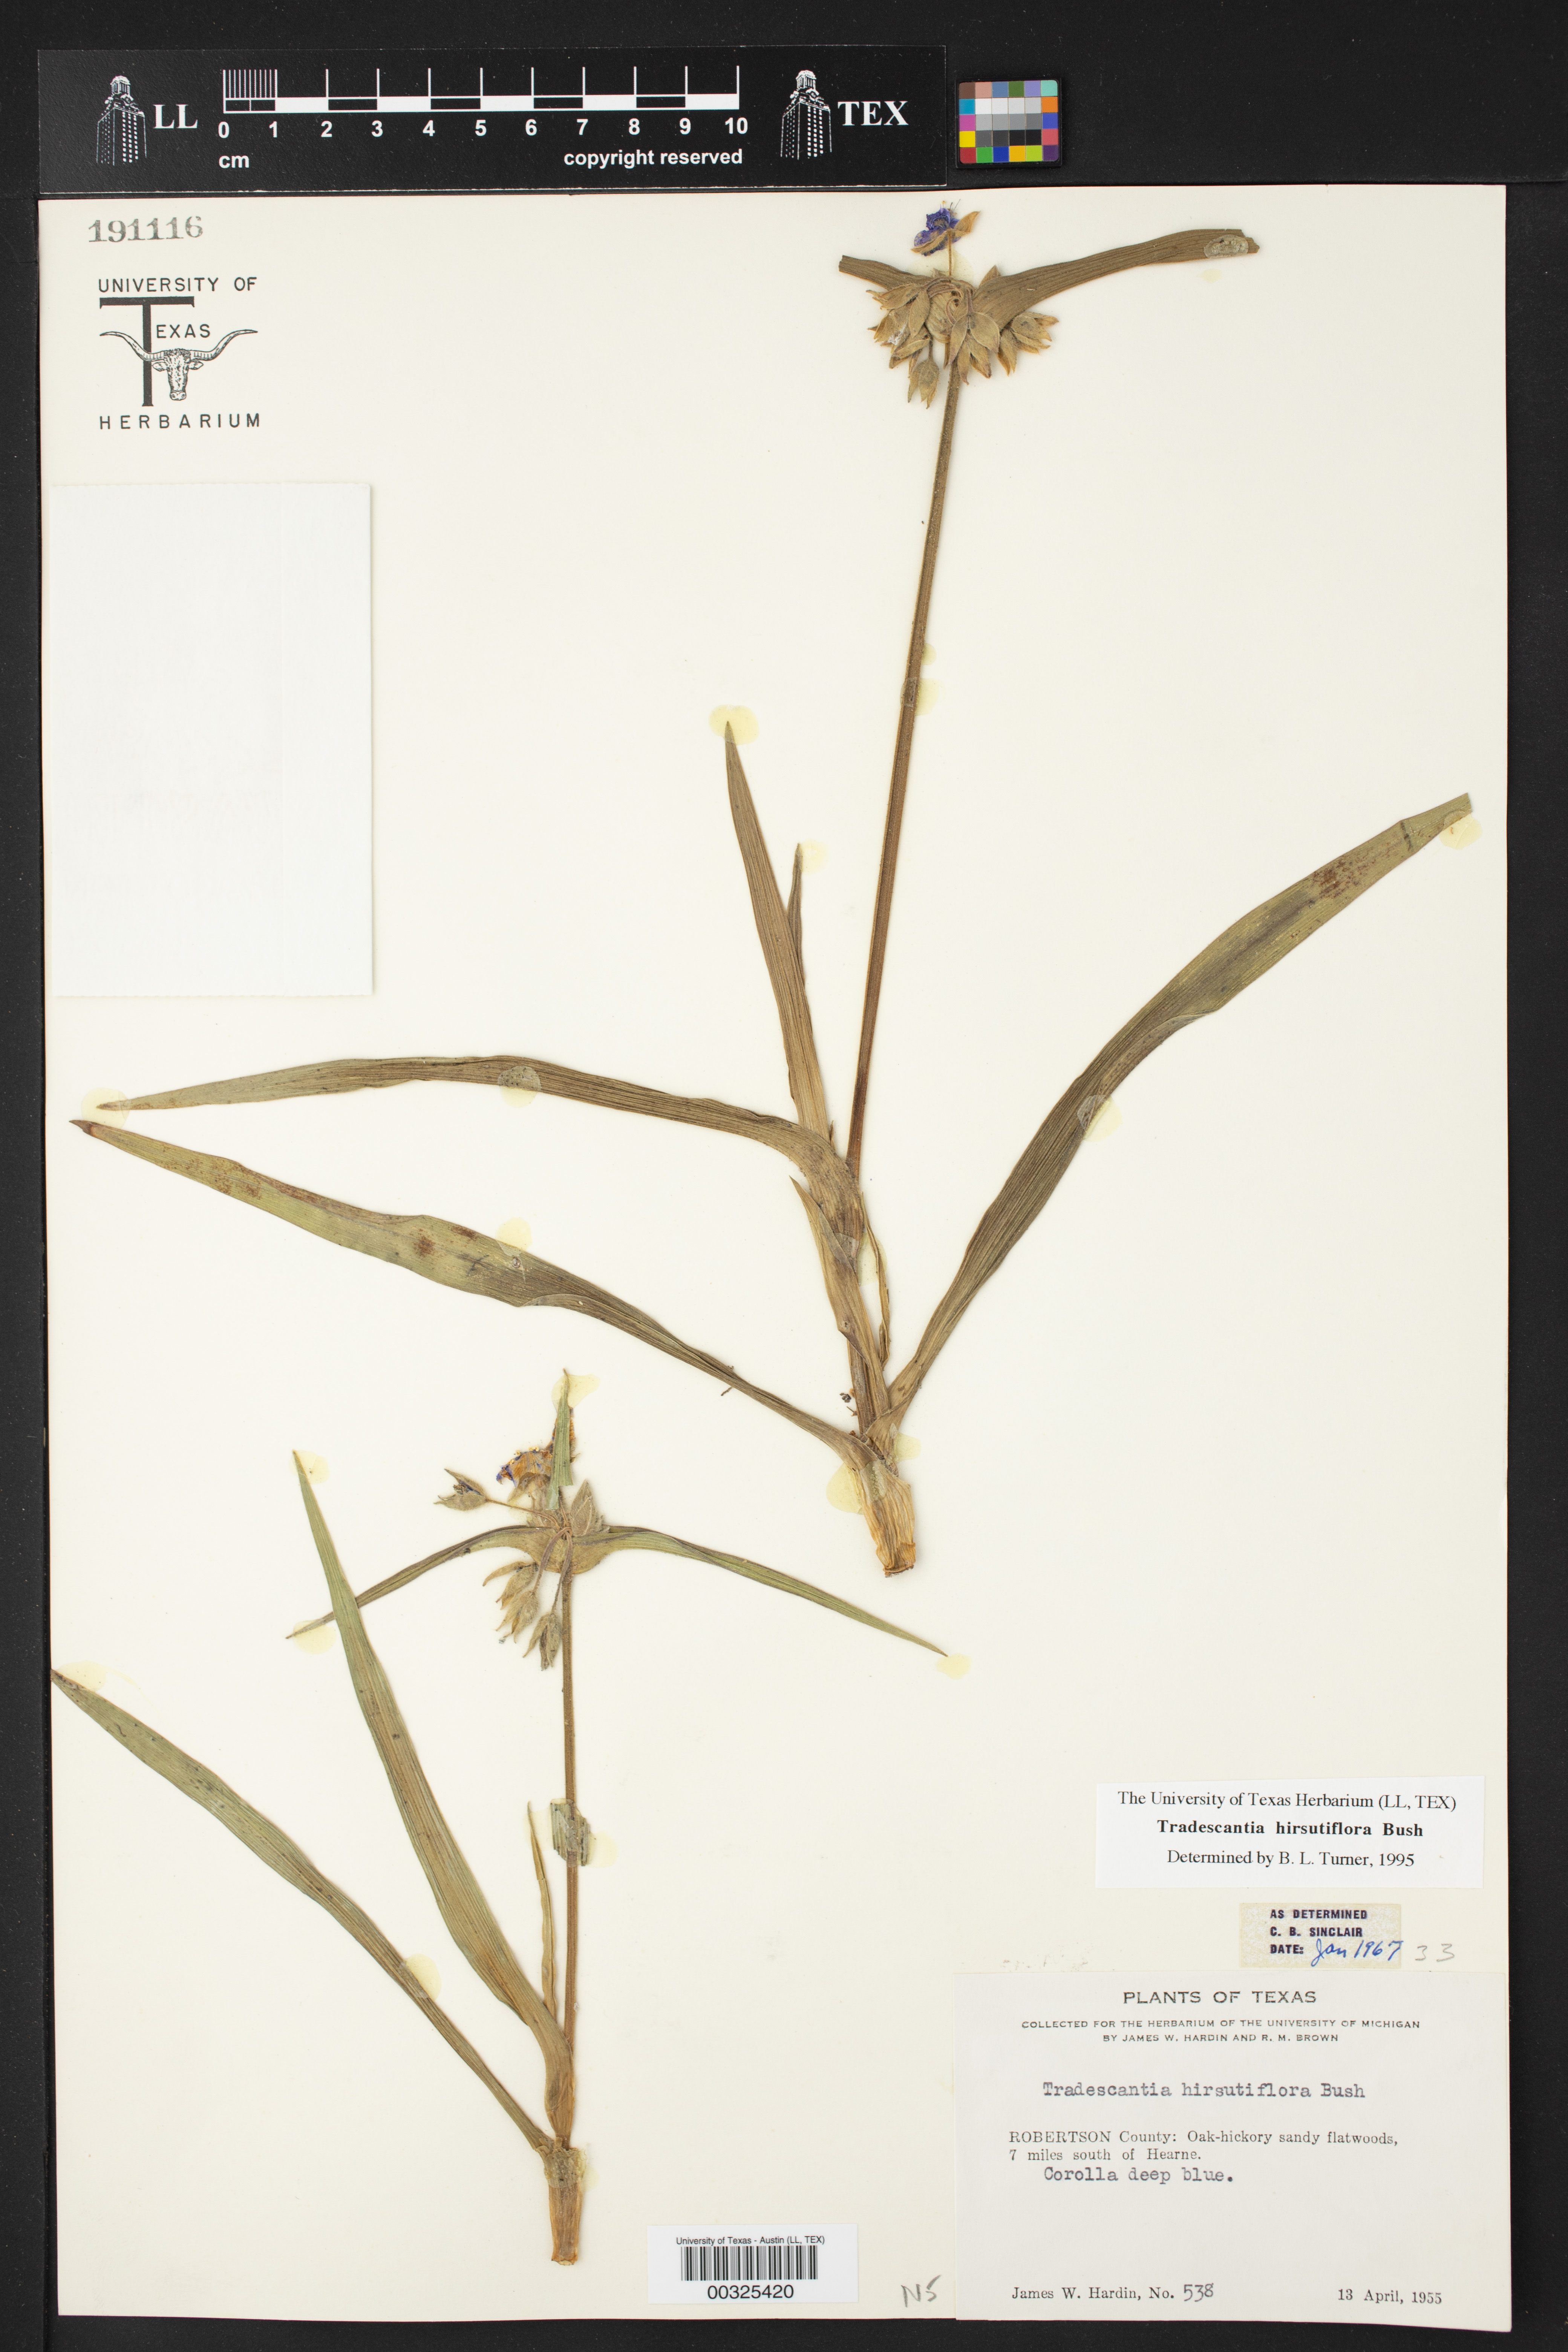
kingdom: Plantae
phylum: Tracheophyta
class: Liliopsida
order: Commelinales
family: Commelinaceae
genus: Tradescantia
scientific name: Tradescantia hirsutiflora
